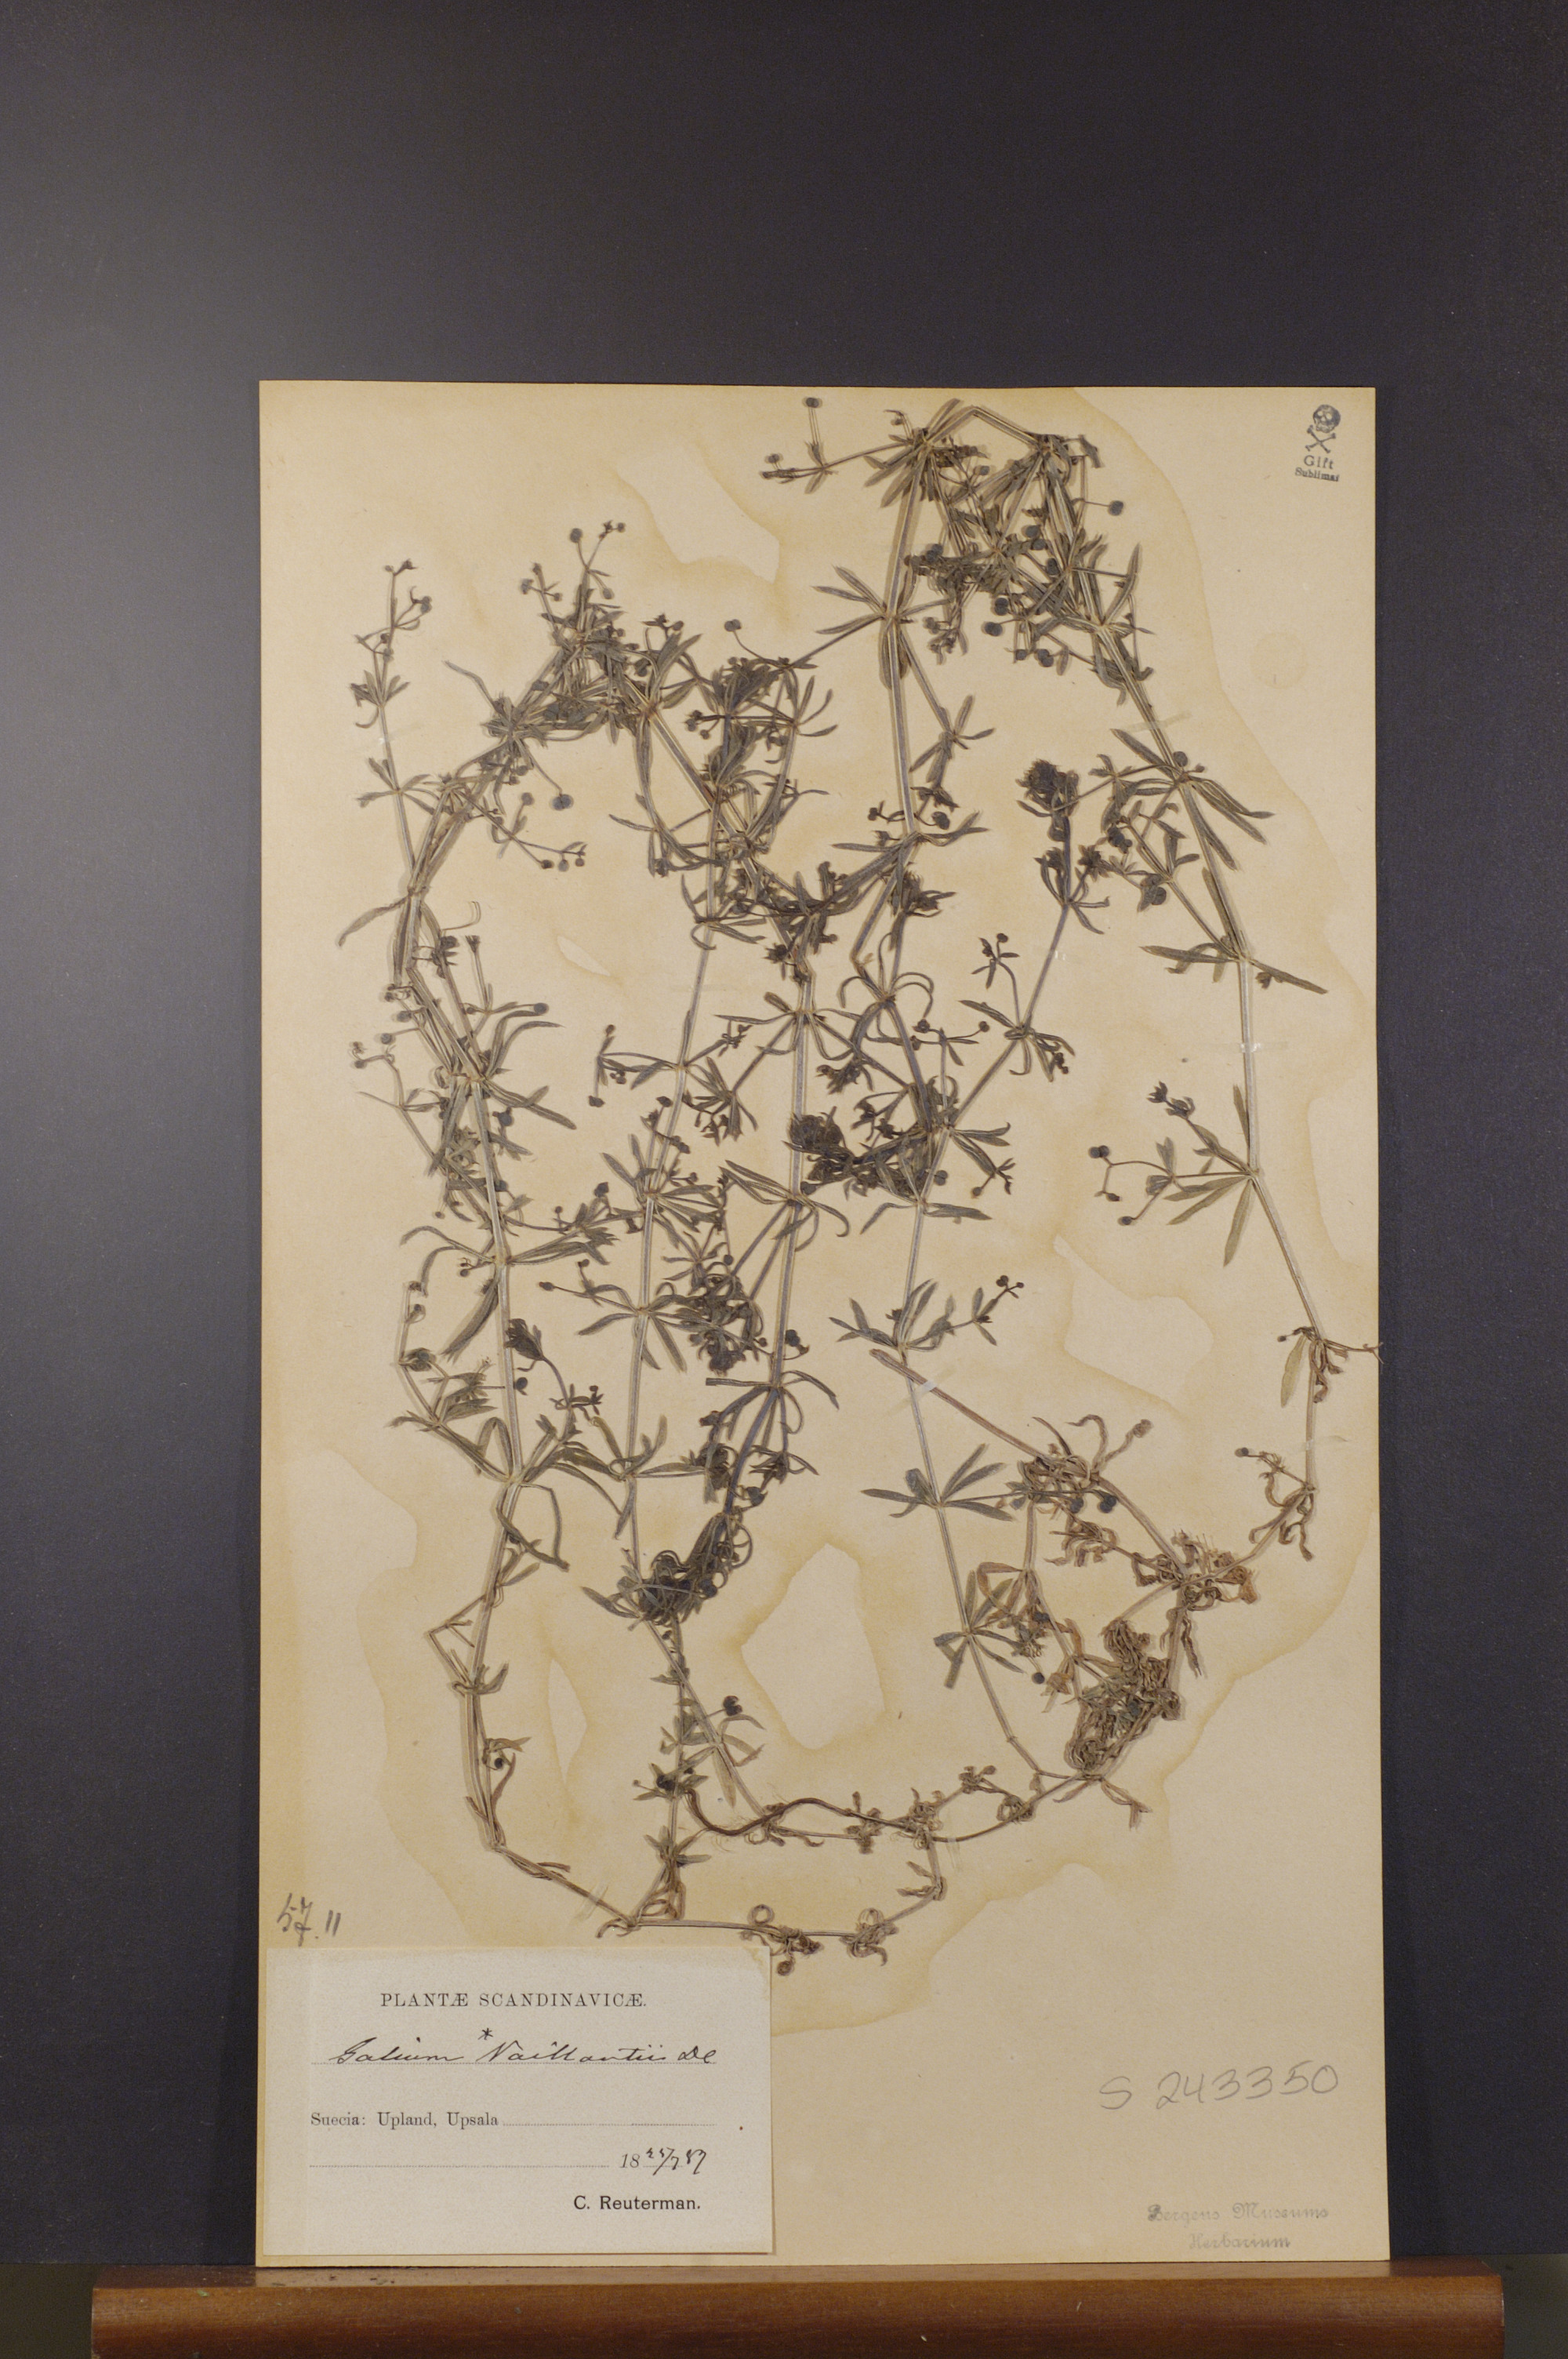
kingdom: Plantae
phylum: Tracheophyta
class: Magnoliopsida
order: Gentianales
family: Rubiaceae
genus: Galium
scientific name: Galium spurium
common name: False cleavers
